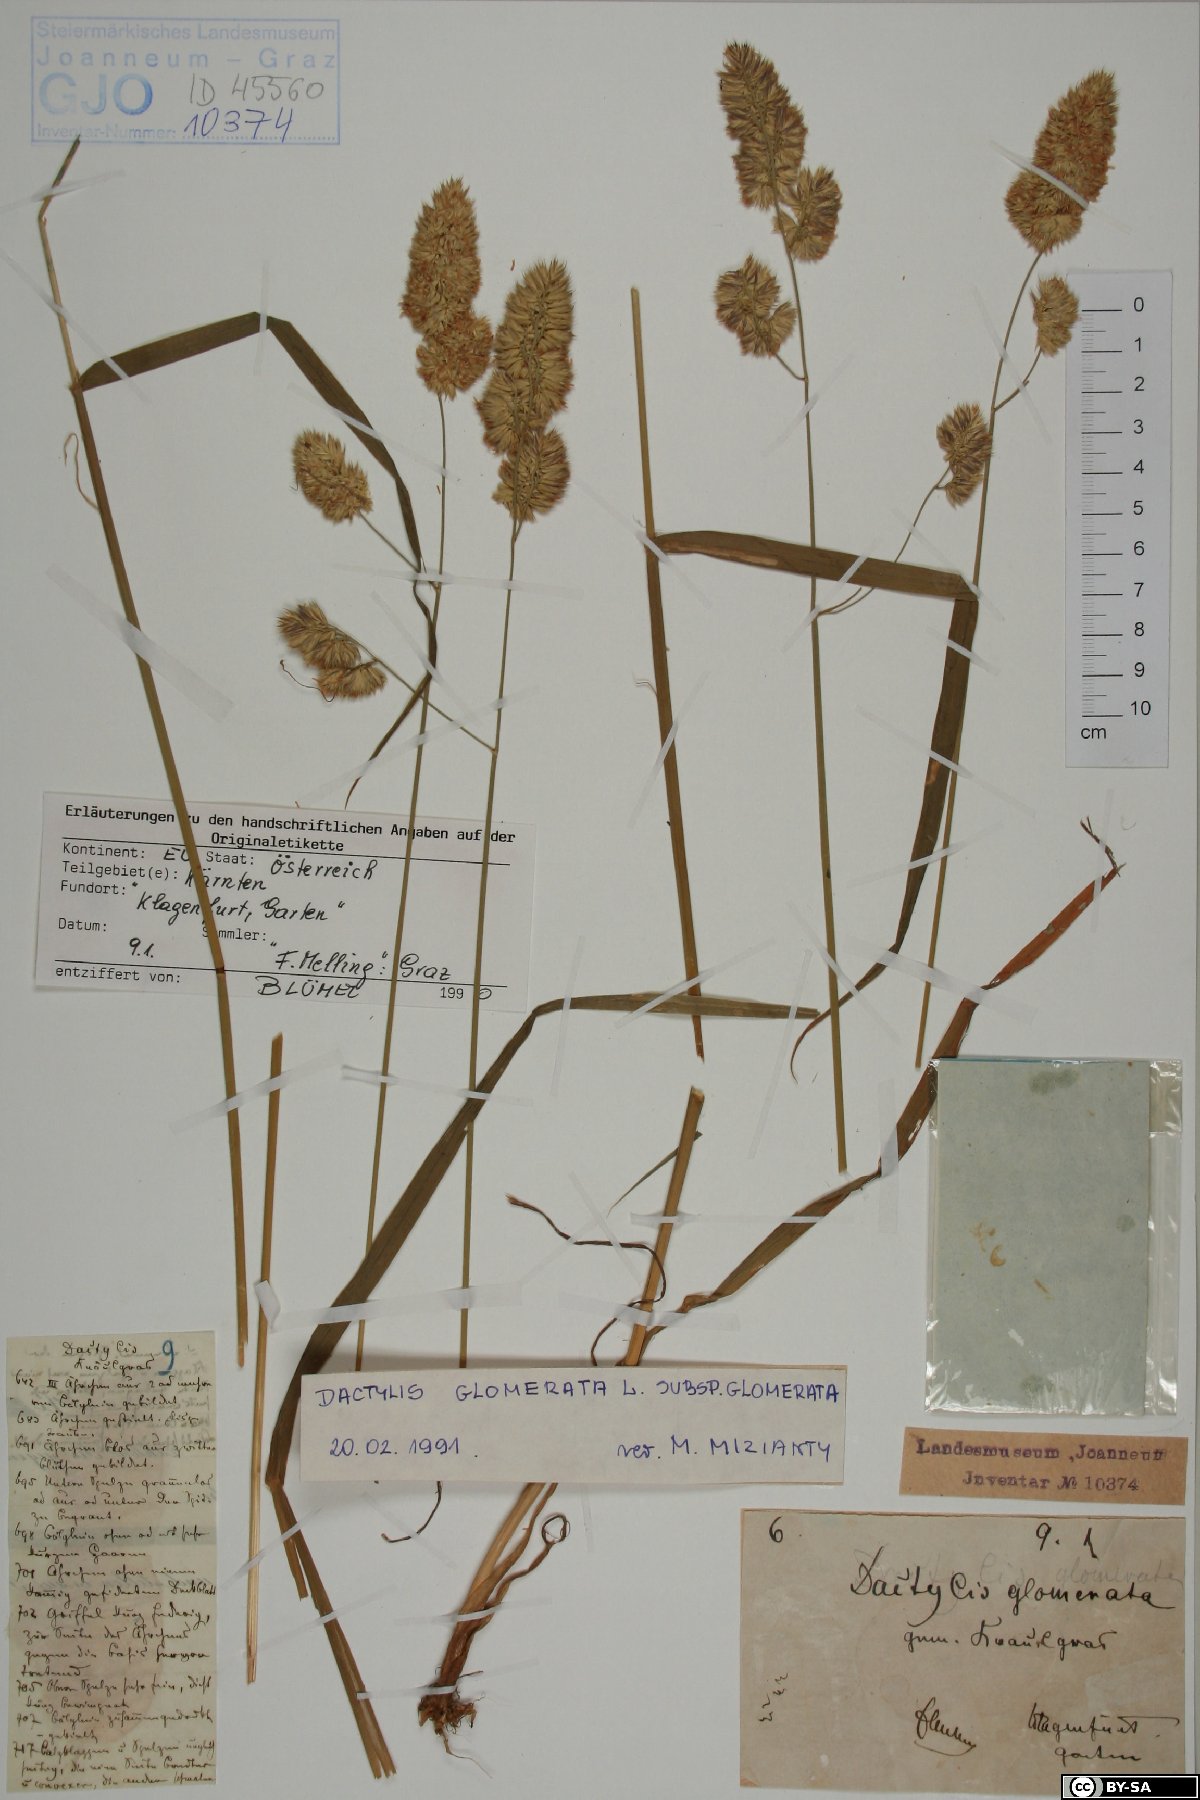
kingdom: Plantae
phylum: Tracheophyta
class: Liliopsida
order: Poales
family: Poaceae
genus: Dactylis
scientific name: Dactylis glomerata
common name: Orchardgrass
